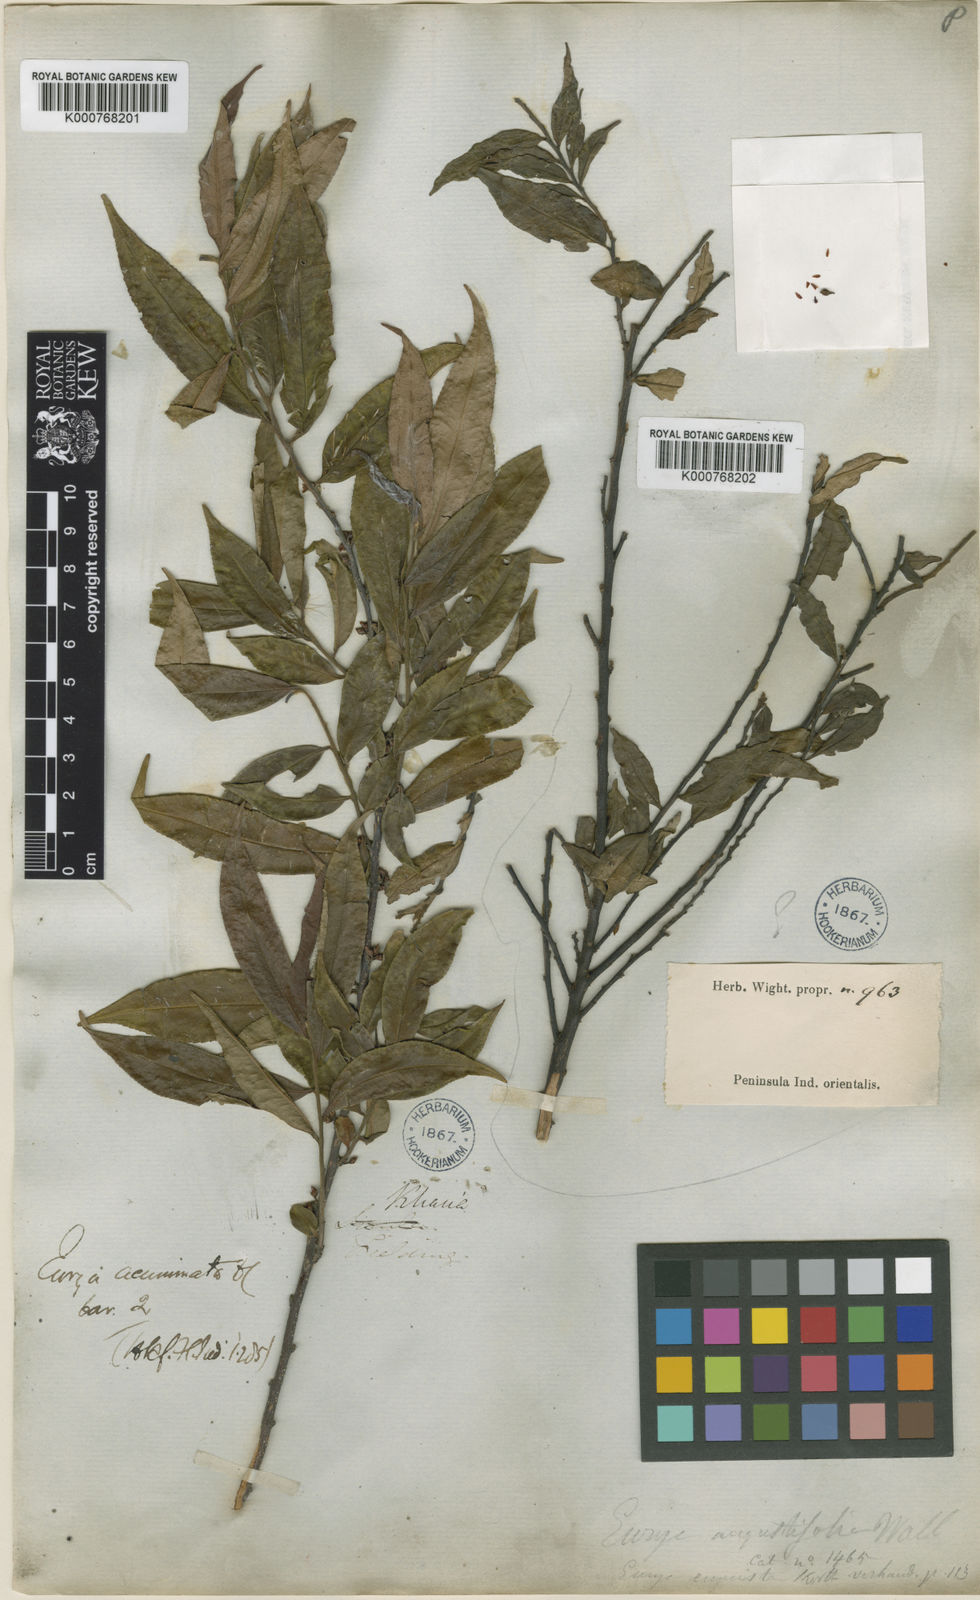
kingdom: Plantae
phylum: Tracheophyta
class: Magnoliopsida
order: Ericales
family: Pentaphylacaceae
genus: Eurya
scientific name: Eurya acuminata
